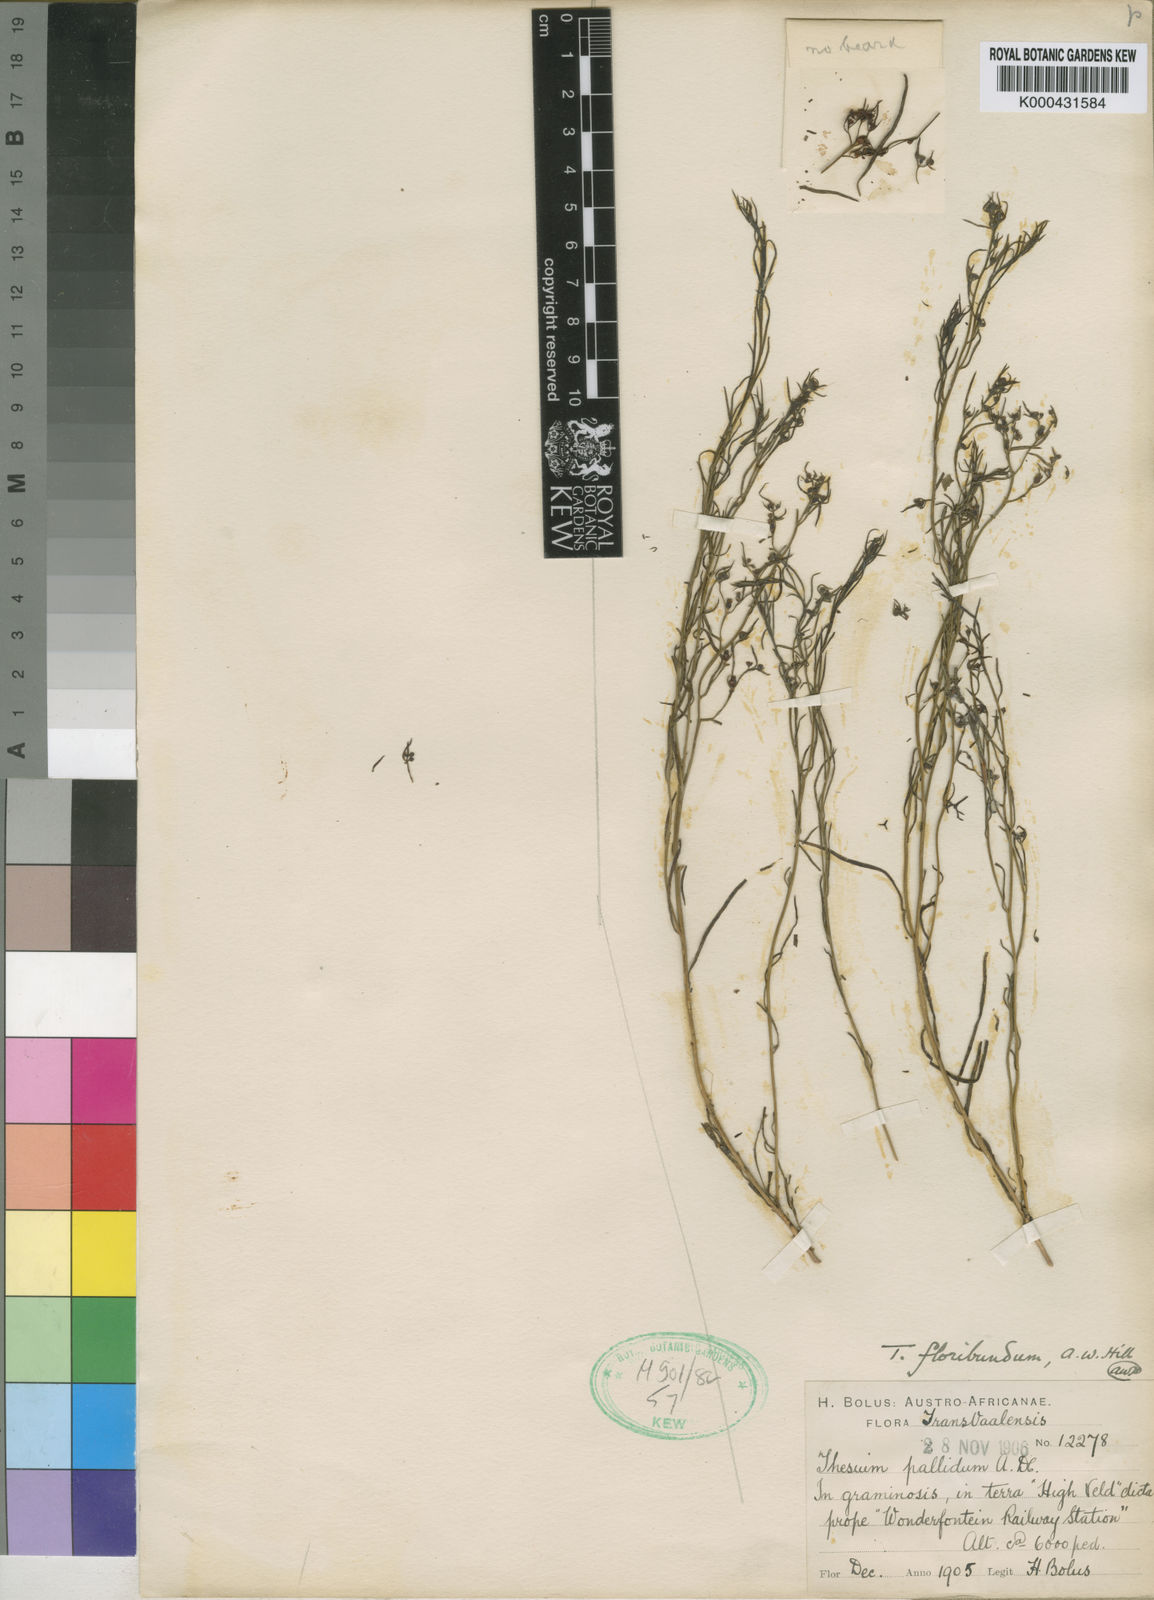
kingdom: Plantae
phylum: Tracheophyta
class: Magnoliopsida
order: Santalales
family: Thesiaceae
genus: Thesium
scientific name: Thesium pallidum
